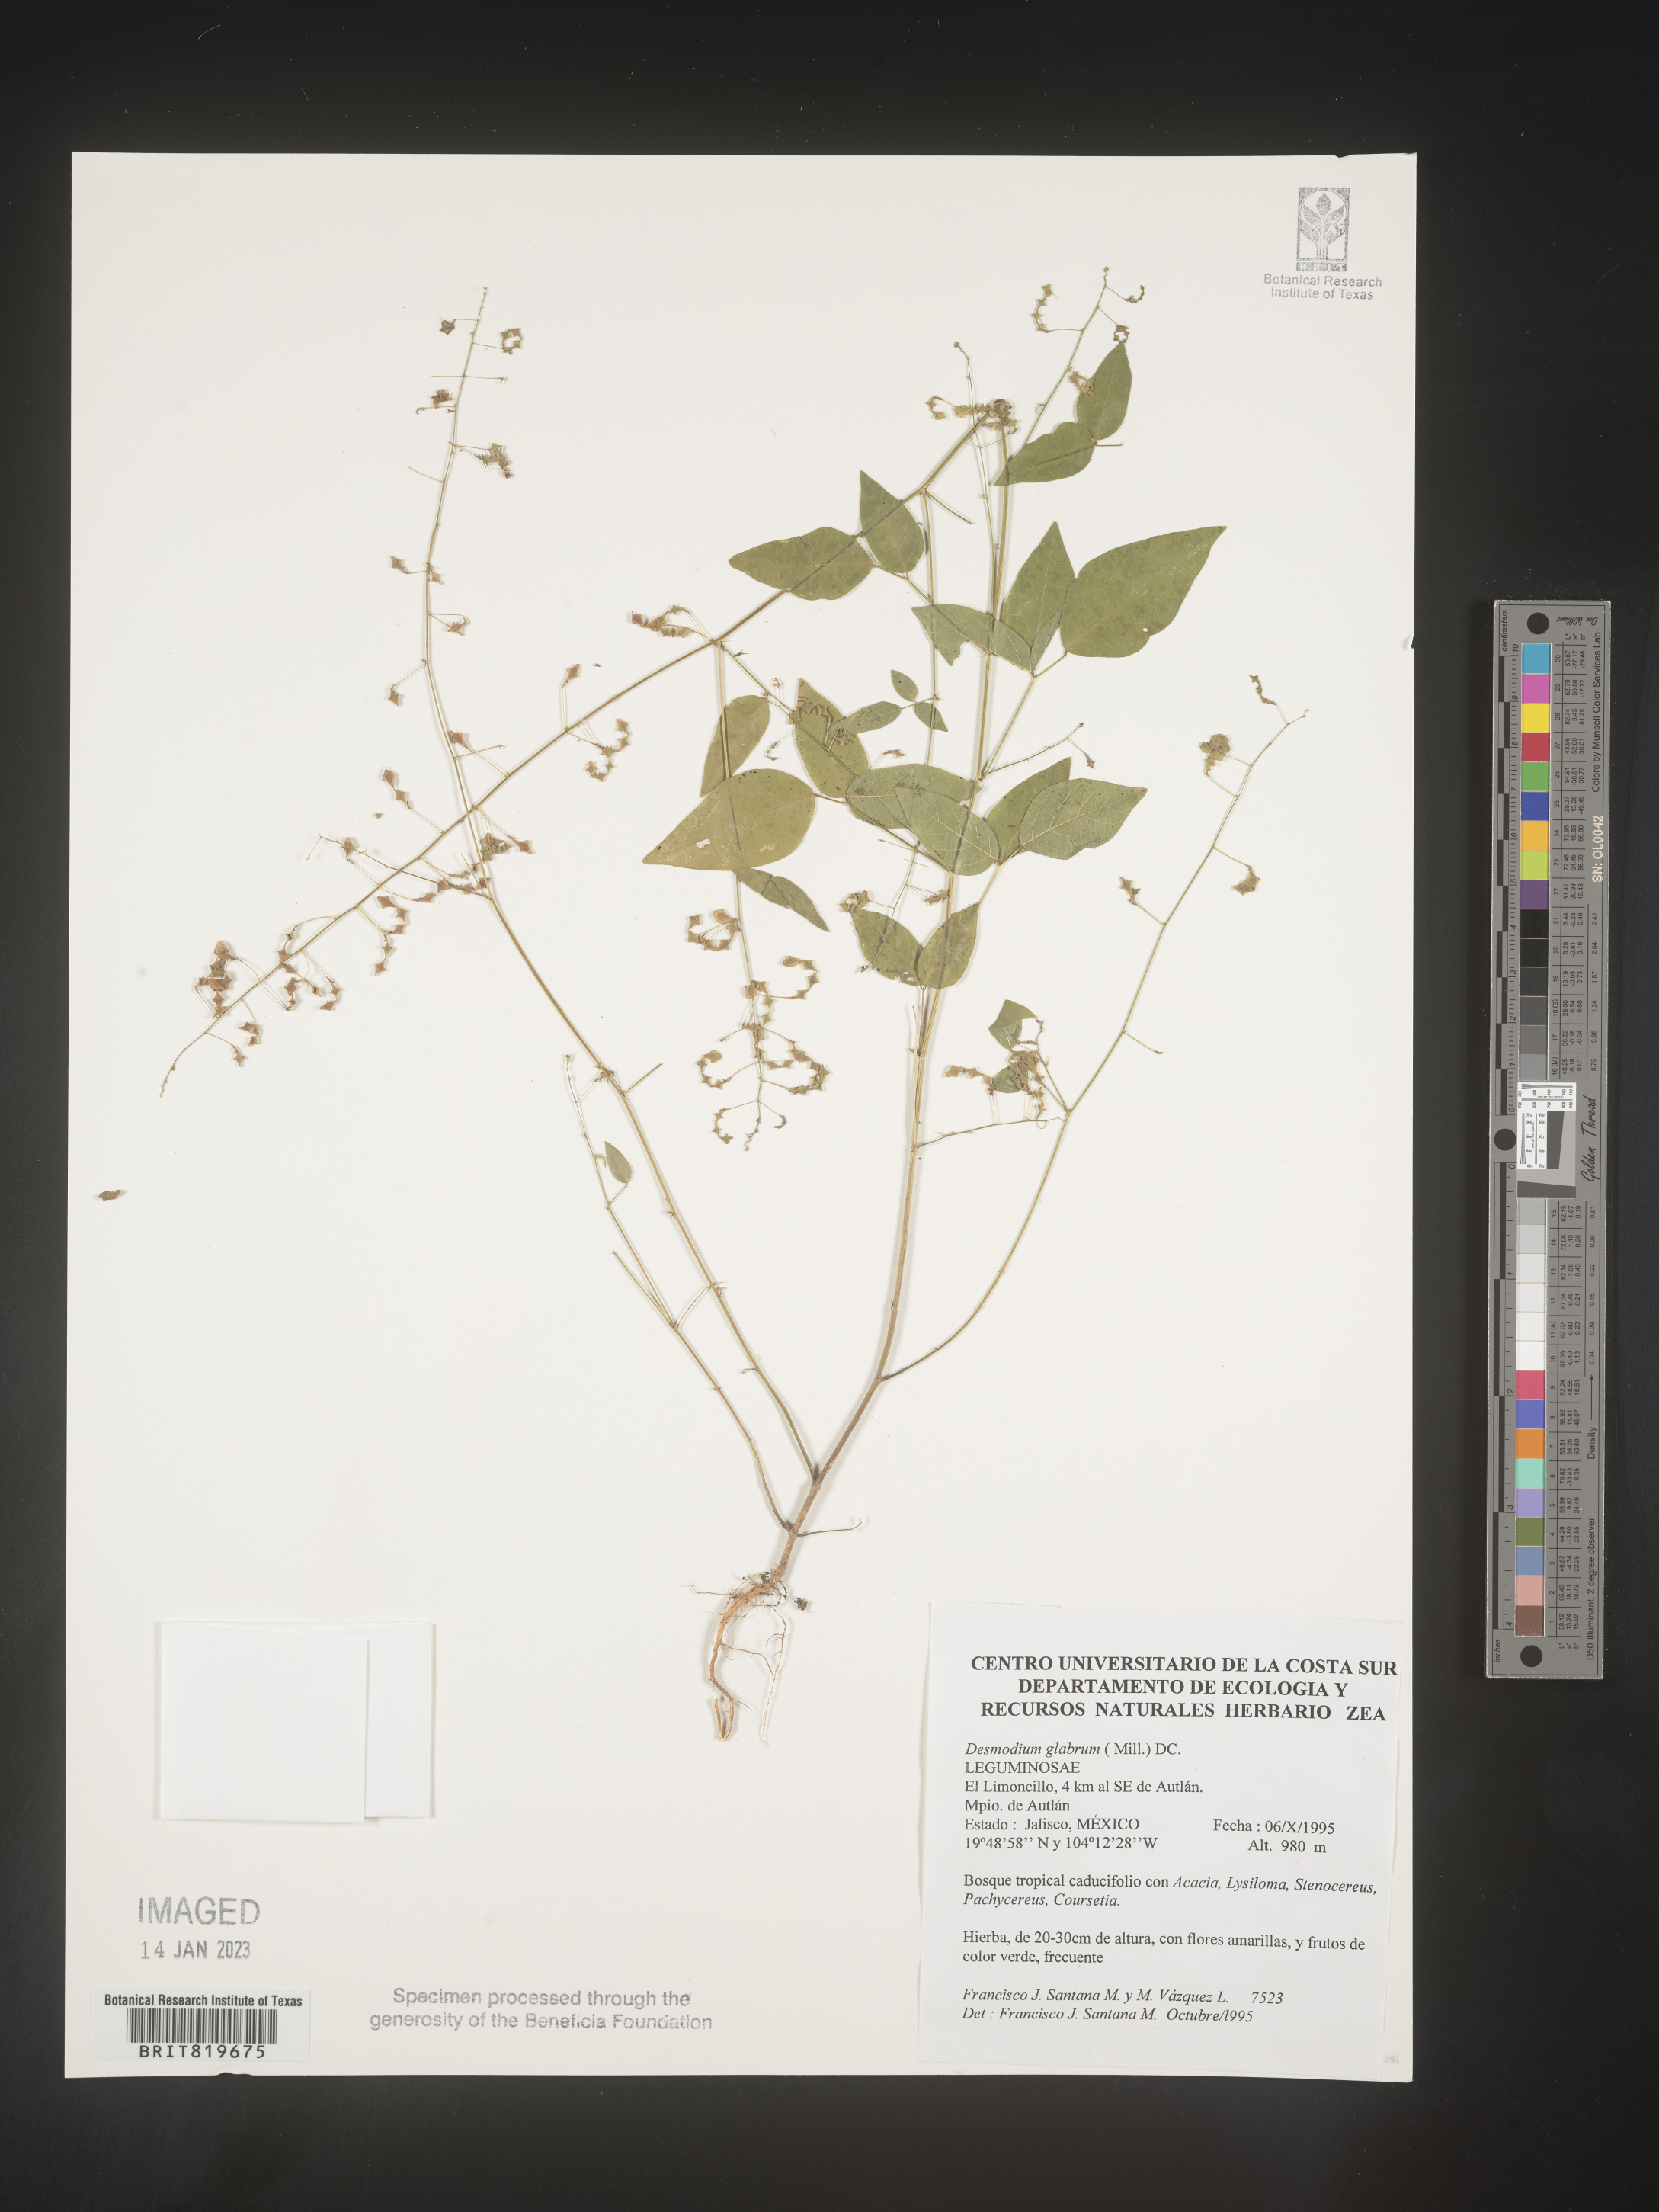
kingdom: Plantae
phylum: Tracheophyta
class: Magnoliopsida
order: Fabales
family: Fabaceae
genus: Desmodium
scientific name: Desmodium
